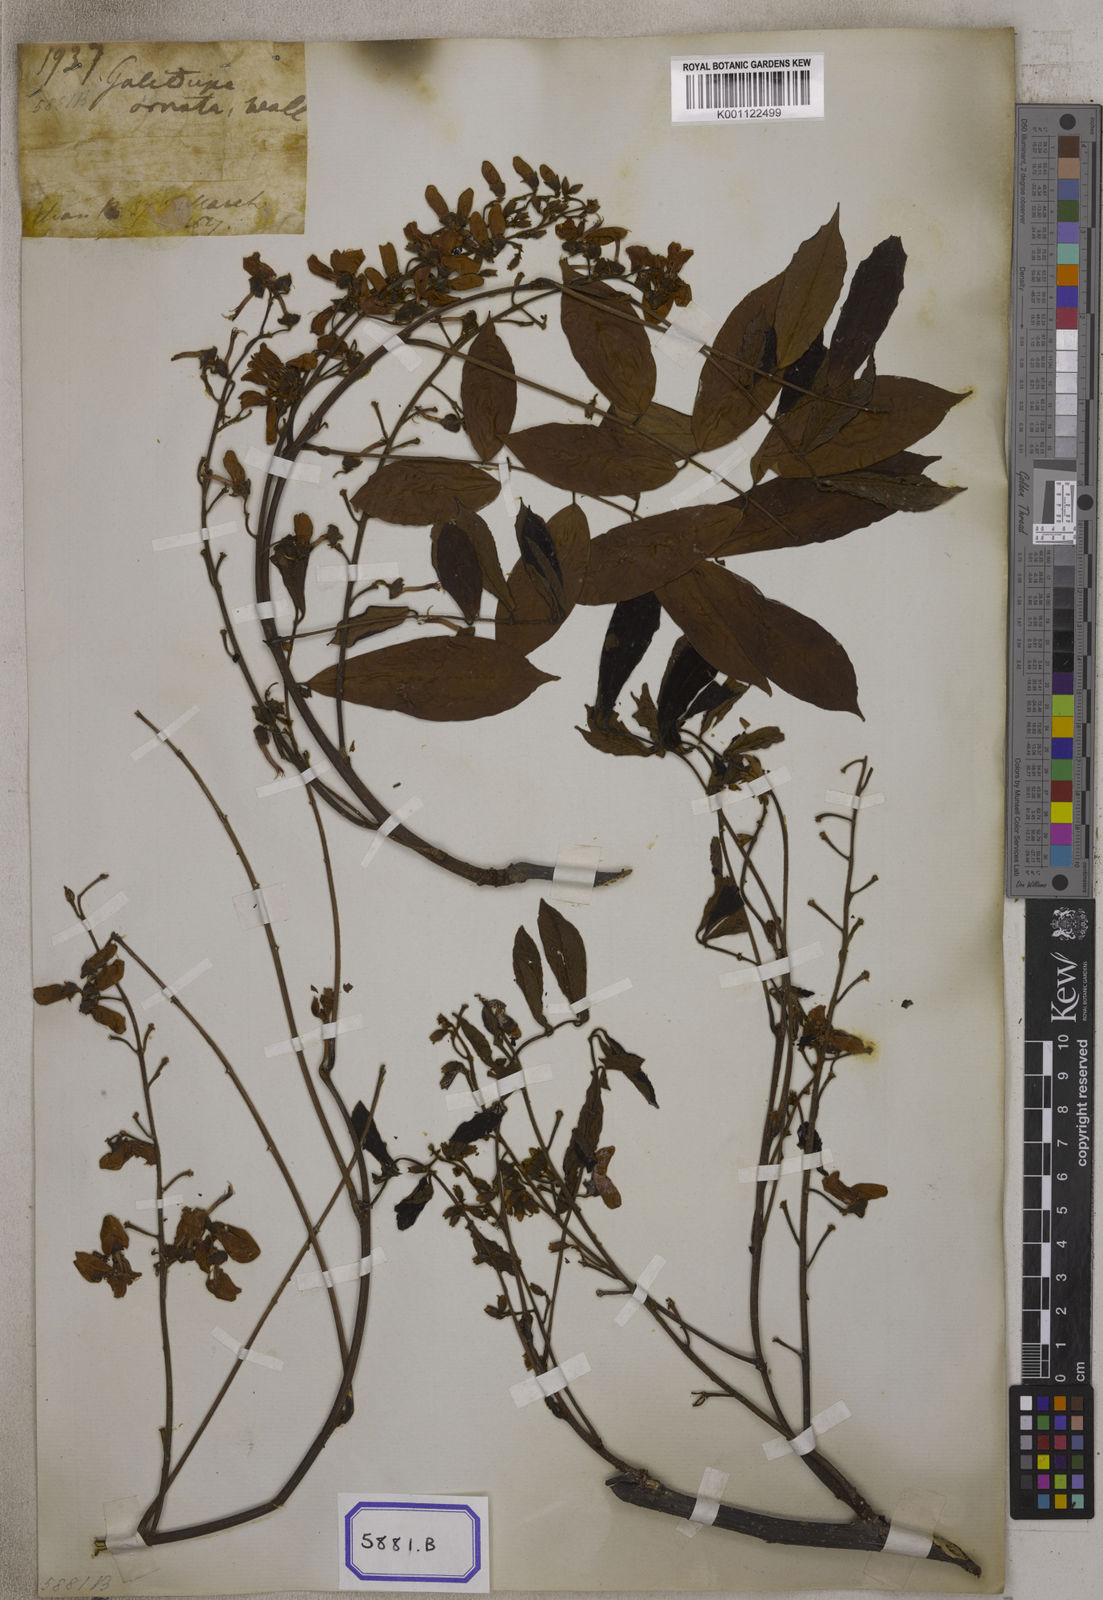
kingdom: Plantae
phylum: Tracheophyta
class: Magnoliopsida
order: Fabales
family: Fabaceae
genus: Pongamia
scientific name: Pongamia
